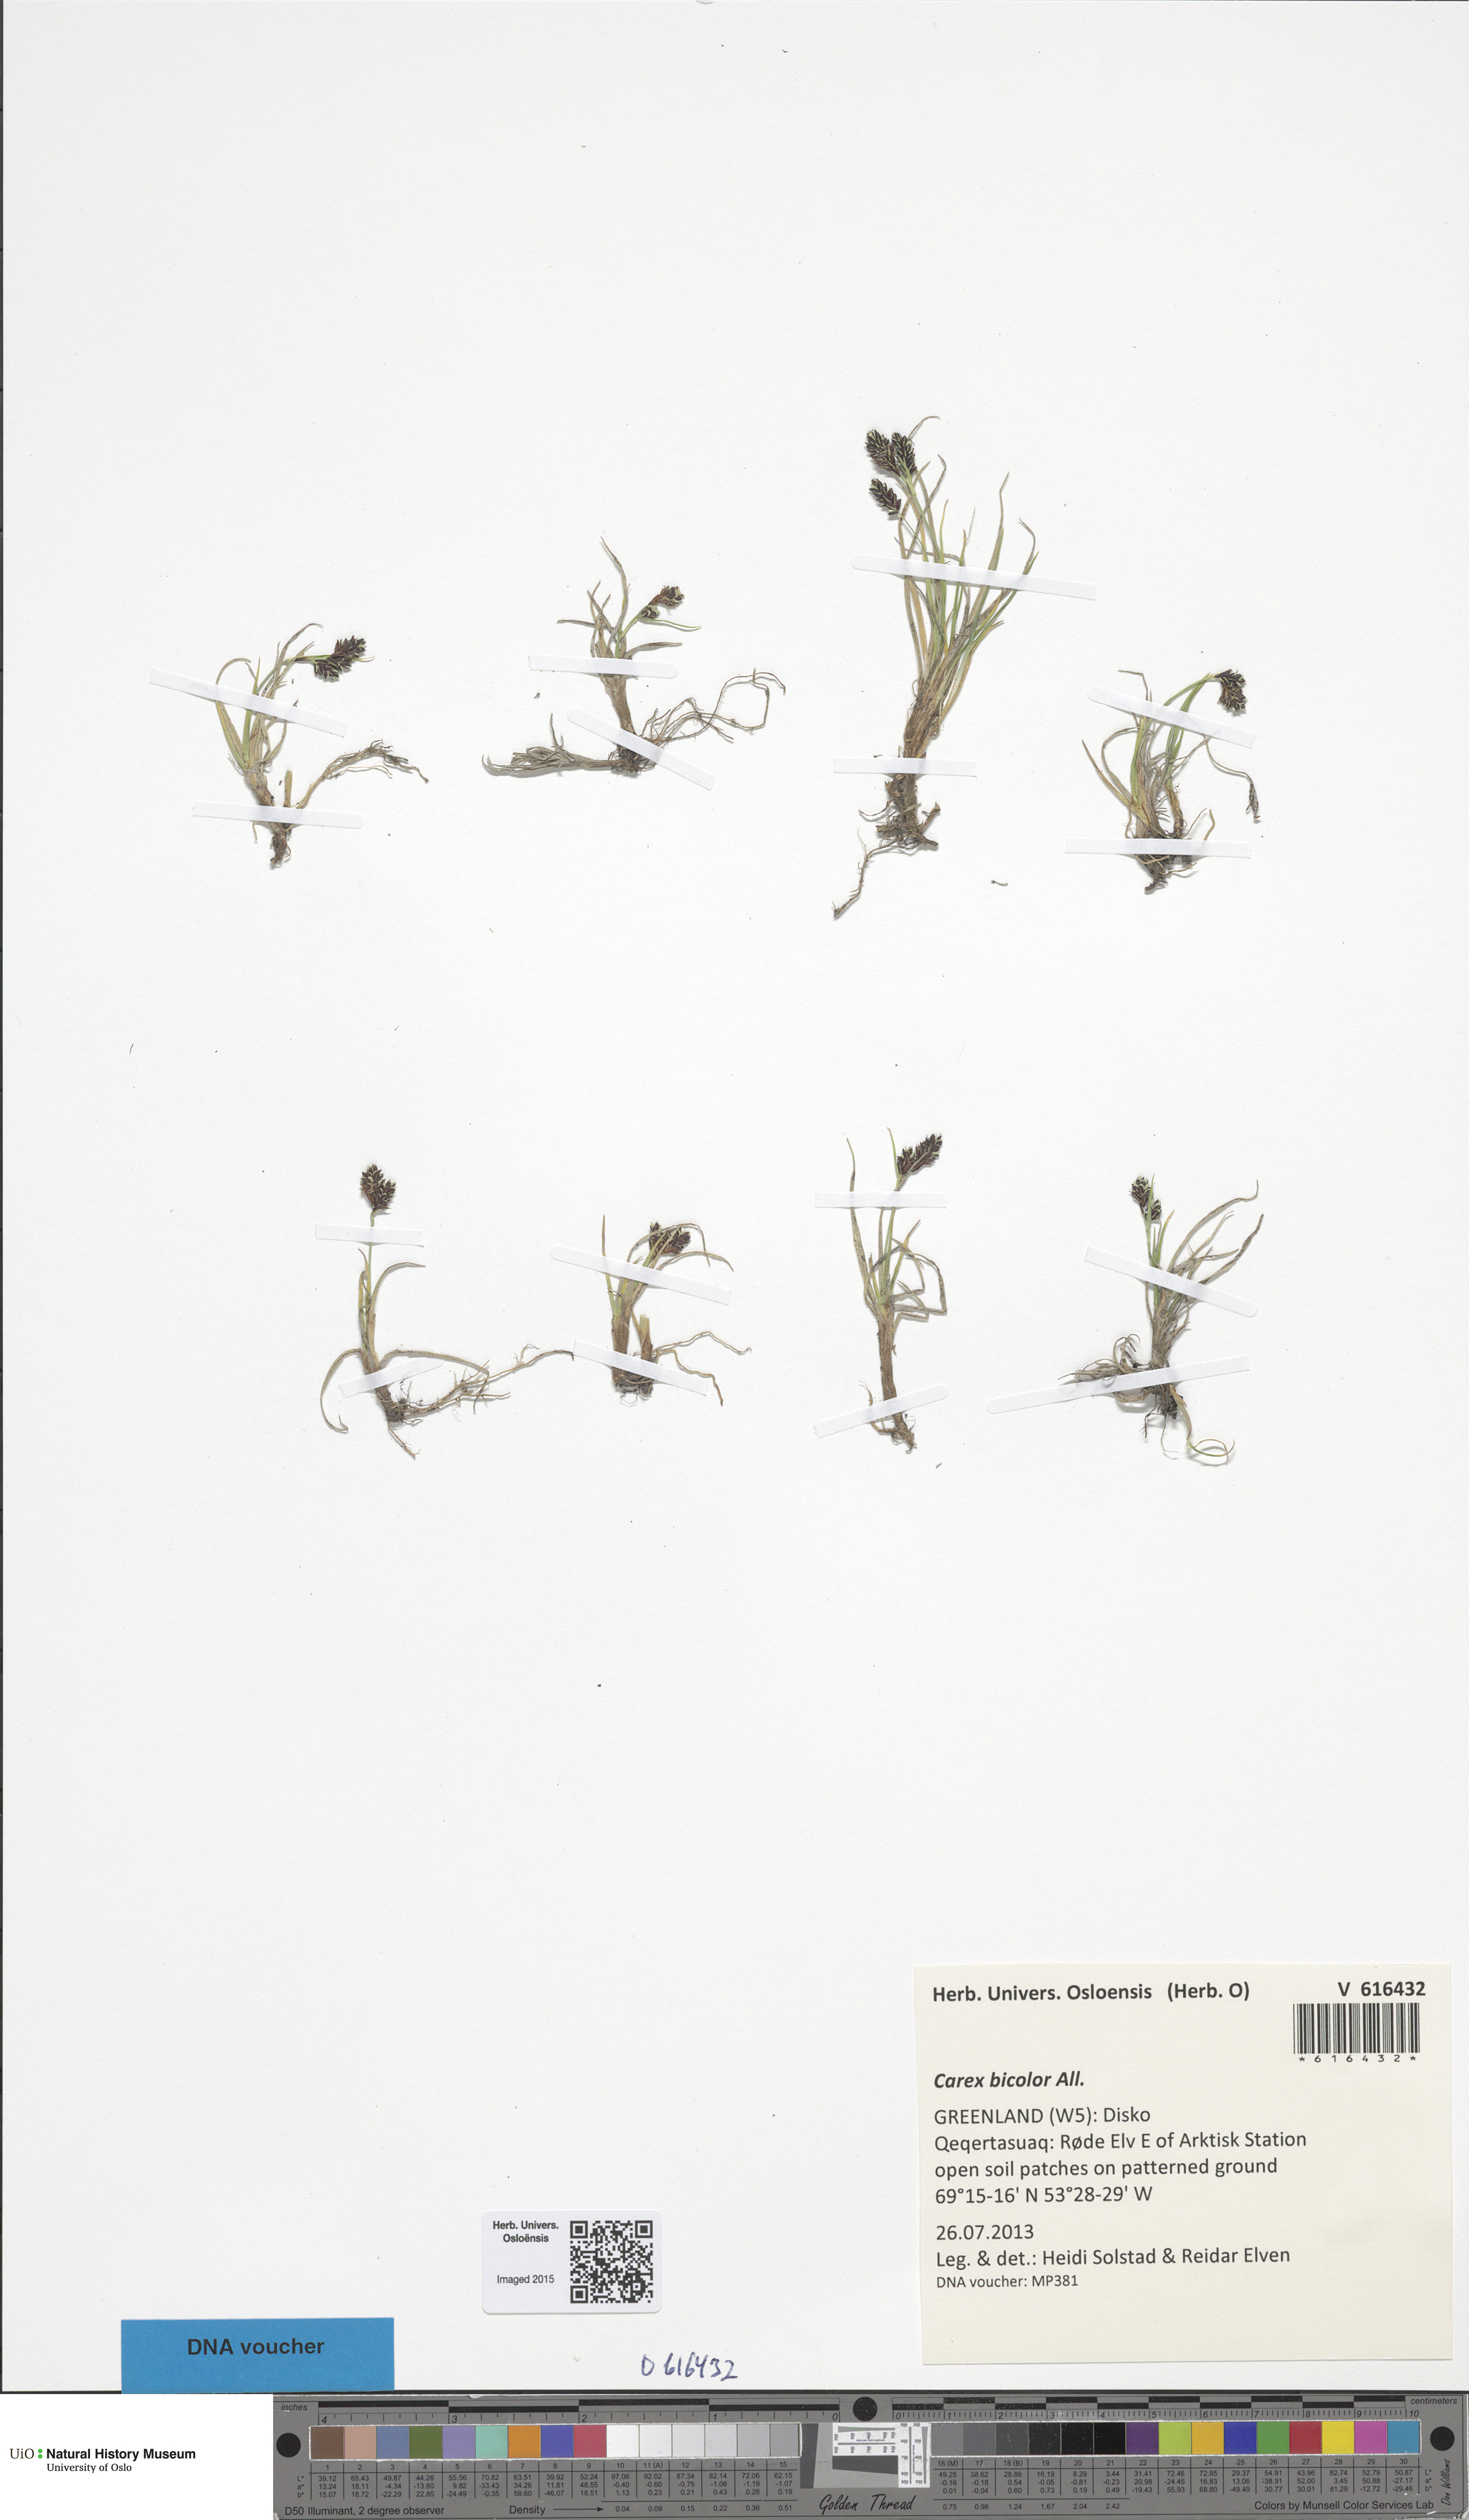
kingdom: Plantae
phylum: Tracheophyta
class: Liliopsida
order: Poales
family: Cyperaceae
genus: Carex
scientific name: Carex bicolor
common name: Bicoloured sedge
